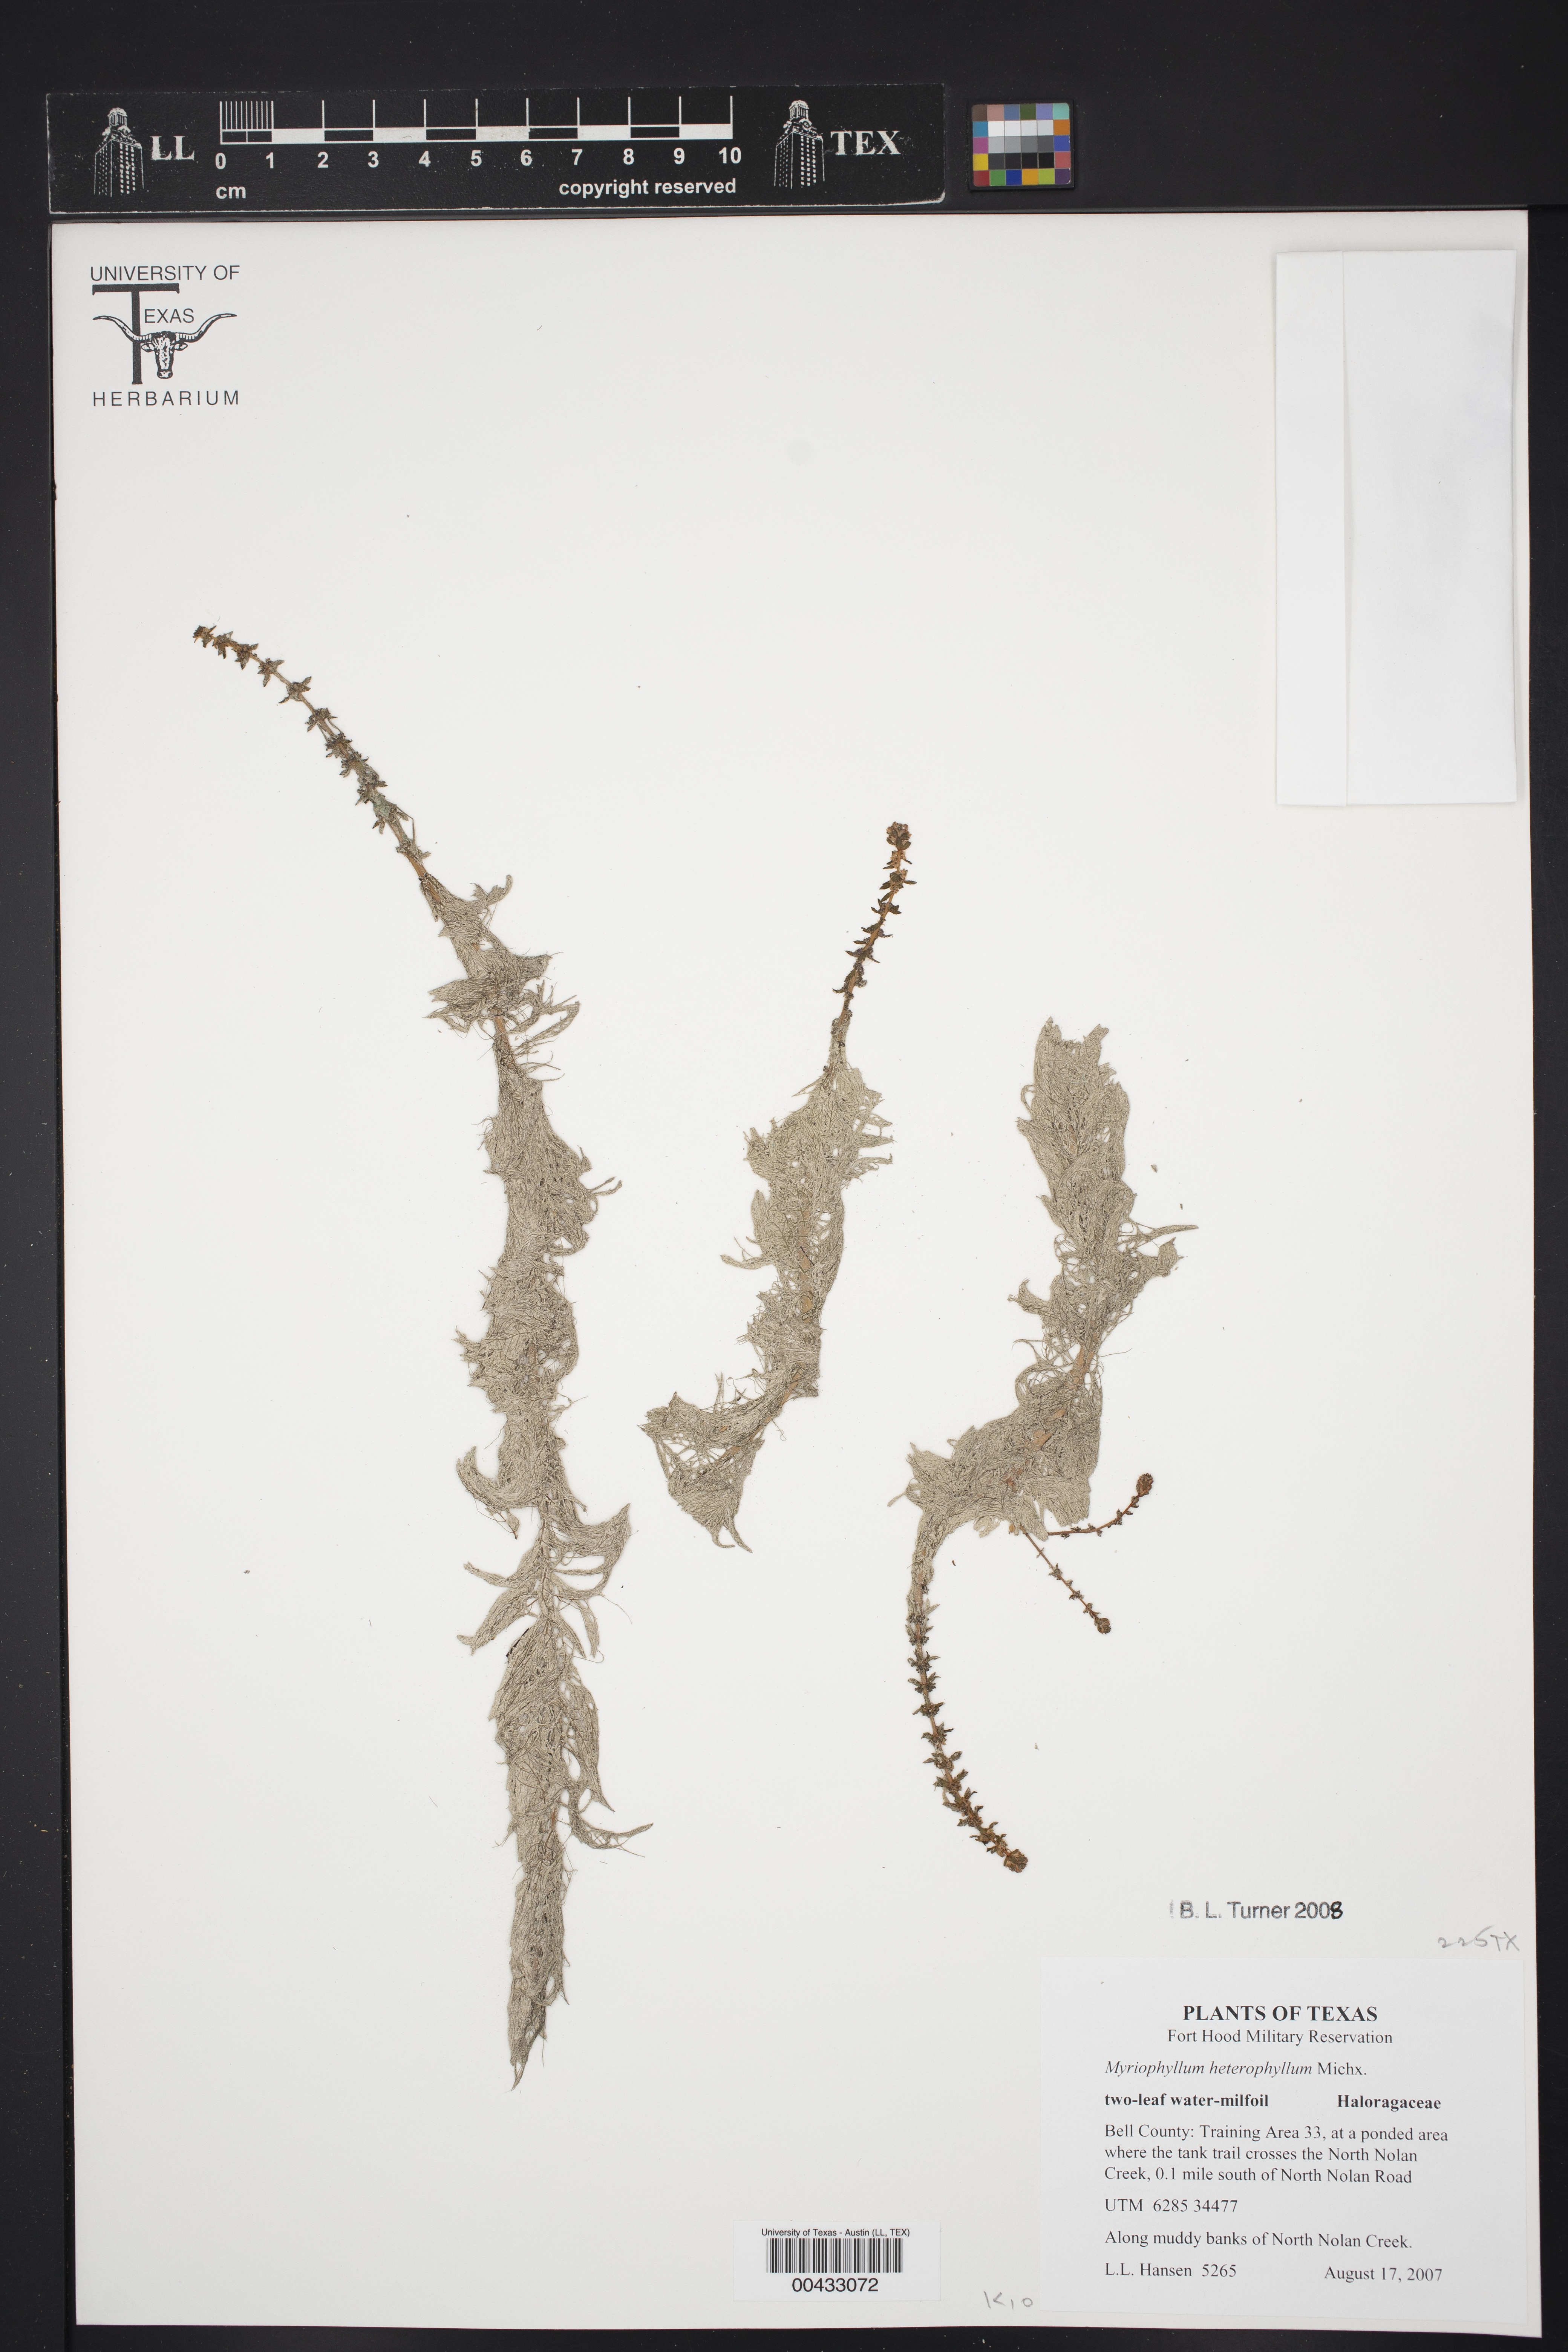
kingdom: Plantae
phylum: Tracheophyta
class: Magnoliopsida
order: Saxifragales
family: Haloragaceae
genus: Myriophyllum
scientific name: Myriophyllum heterophyllum
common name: Variable watermilfoil
